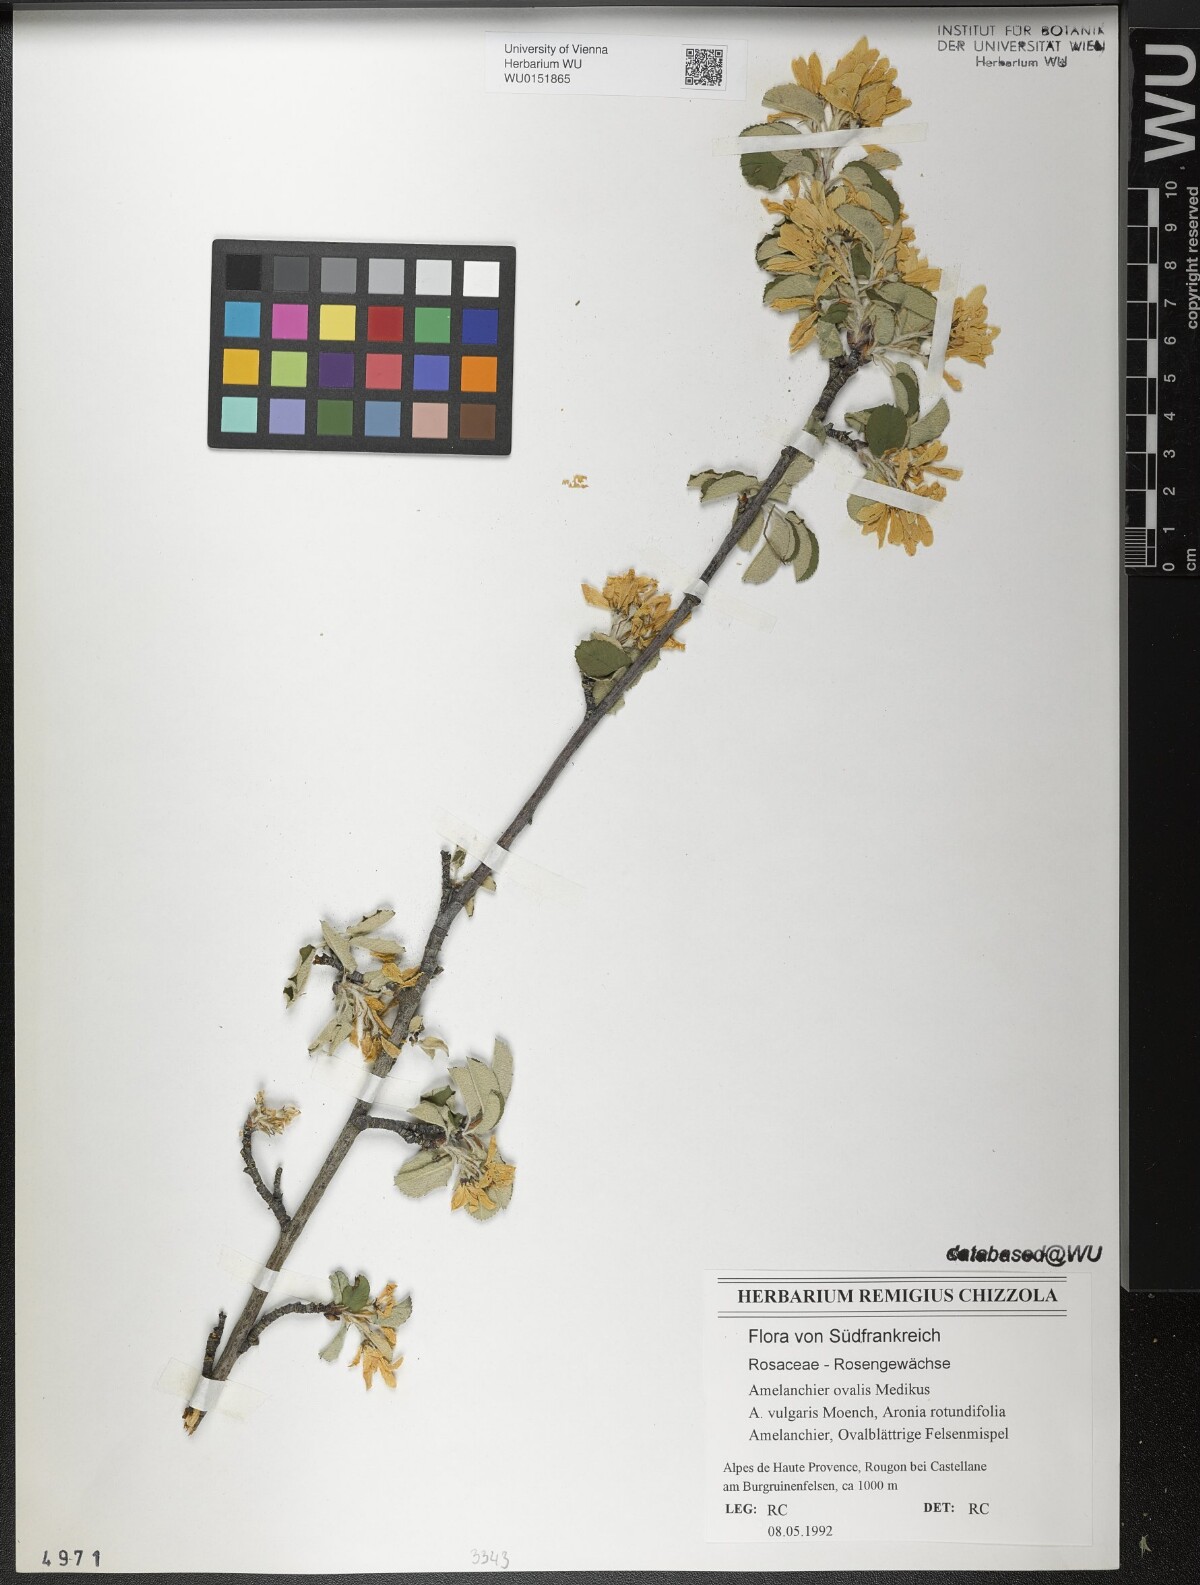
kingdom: Plantae
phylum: Tracheophyta
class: Magnoliopsida
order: Rosales
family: Rosaceae
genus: Amelanchier
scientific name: Amelanchier ovalis
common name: Serviceberry
